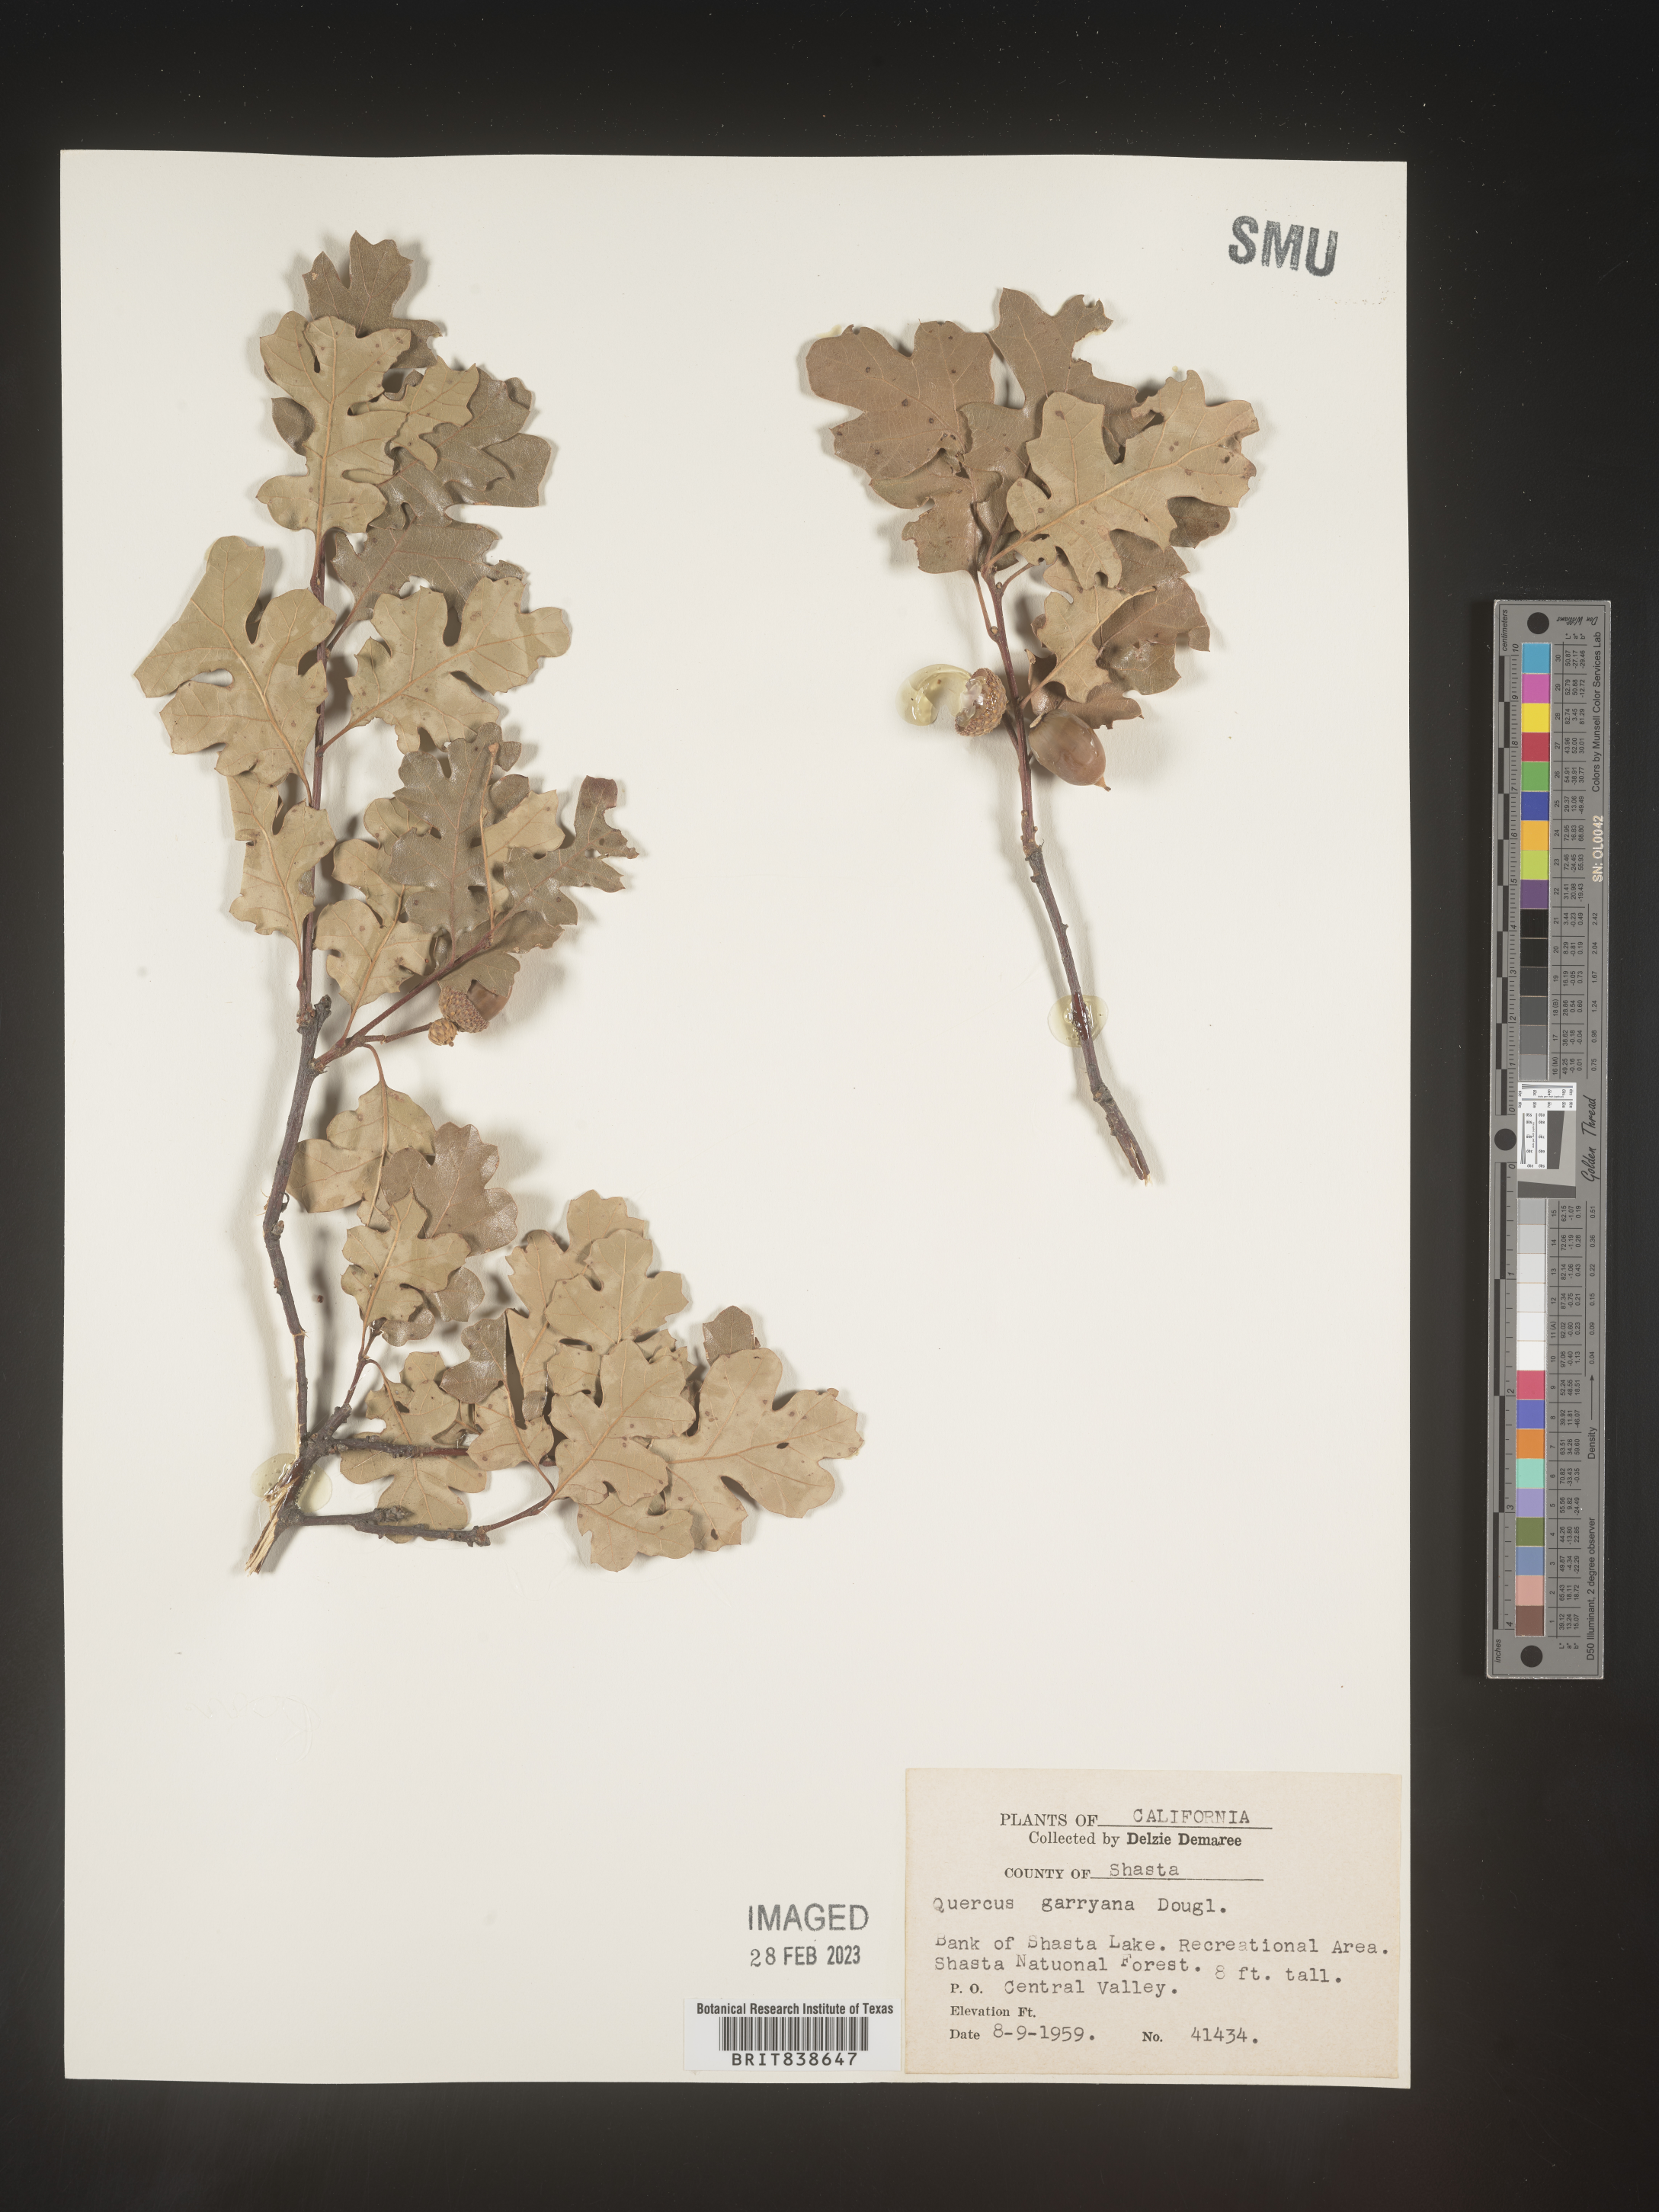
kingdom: Plantae
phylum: Tracheophyta
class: Magnoliopsida
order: Fagales
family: Fagaceae
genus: Quercus
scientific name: Quercus
